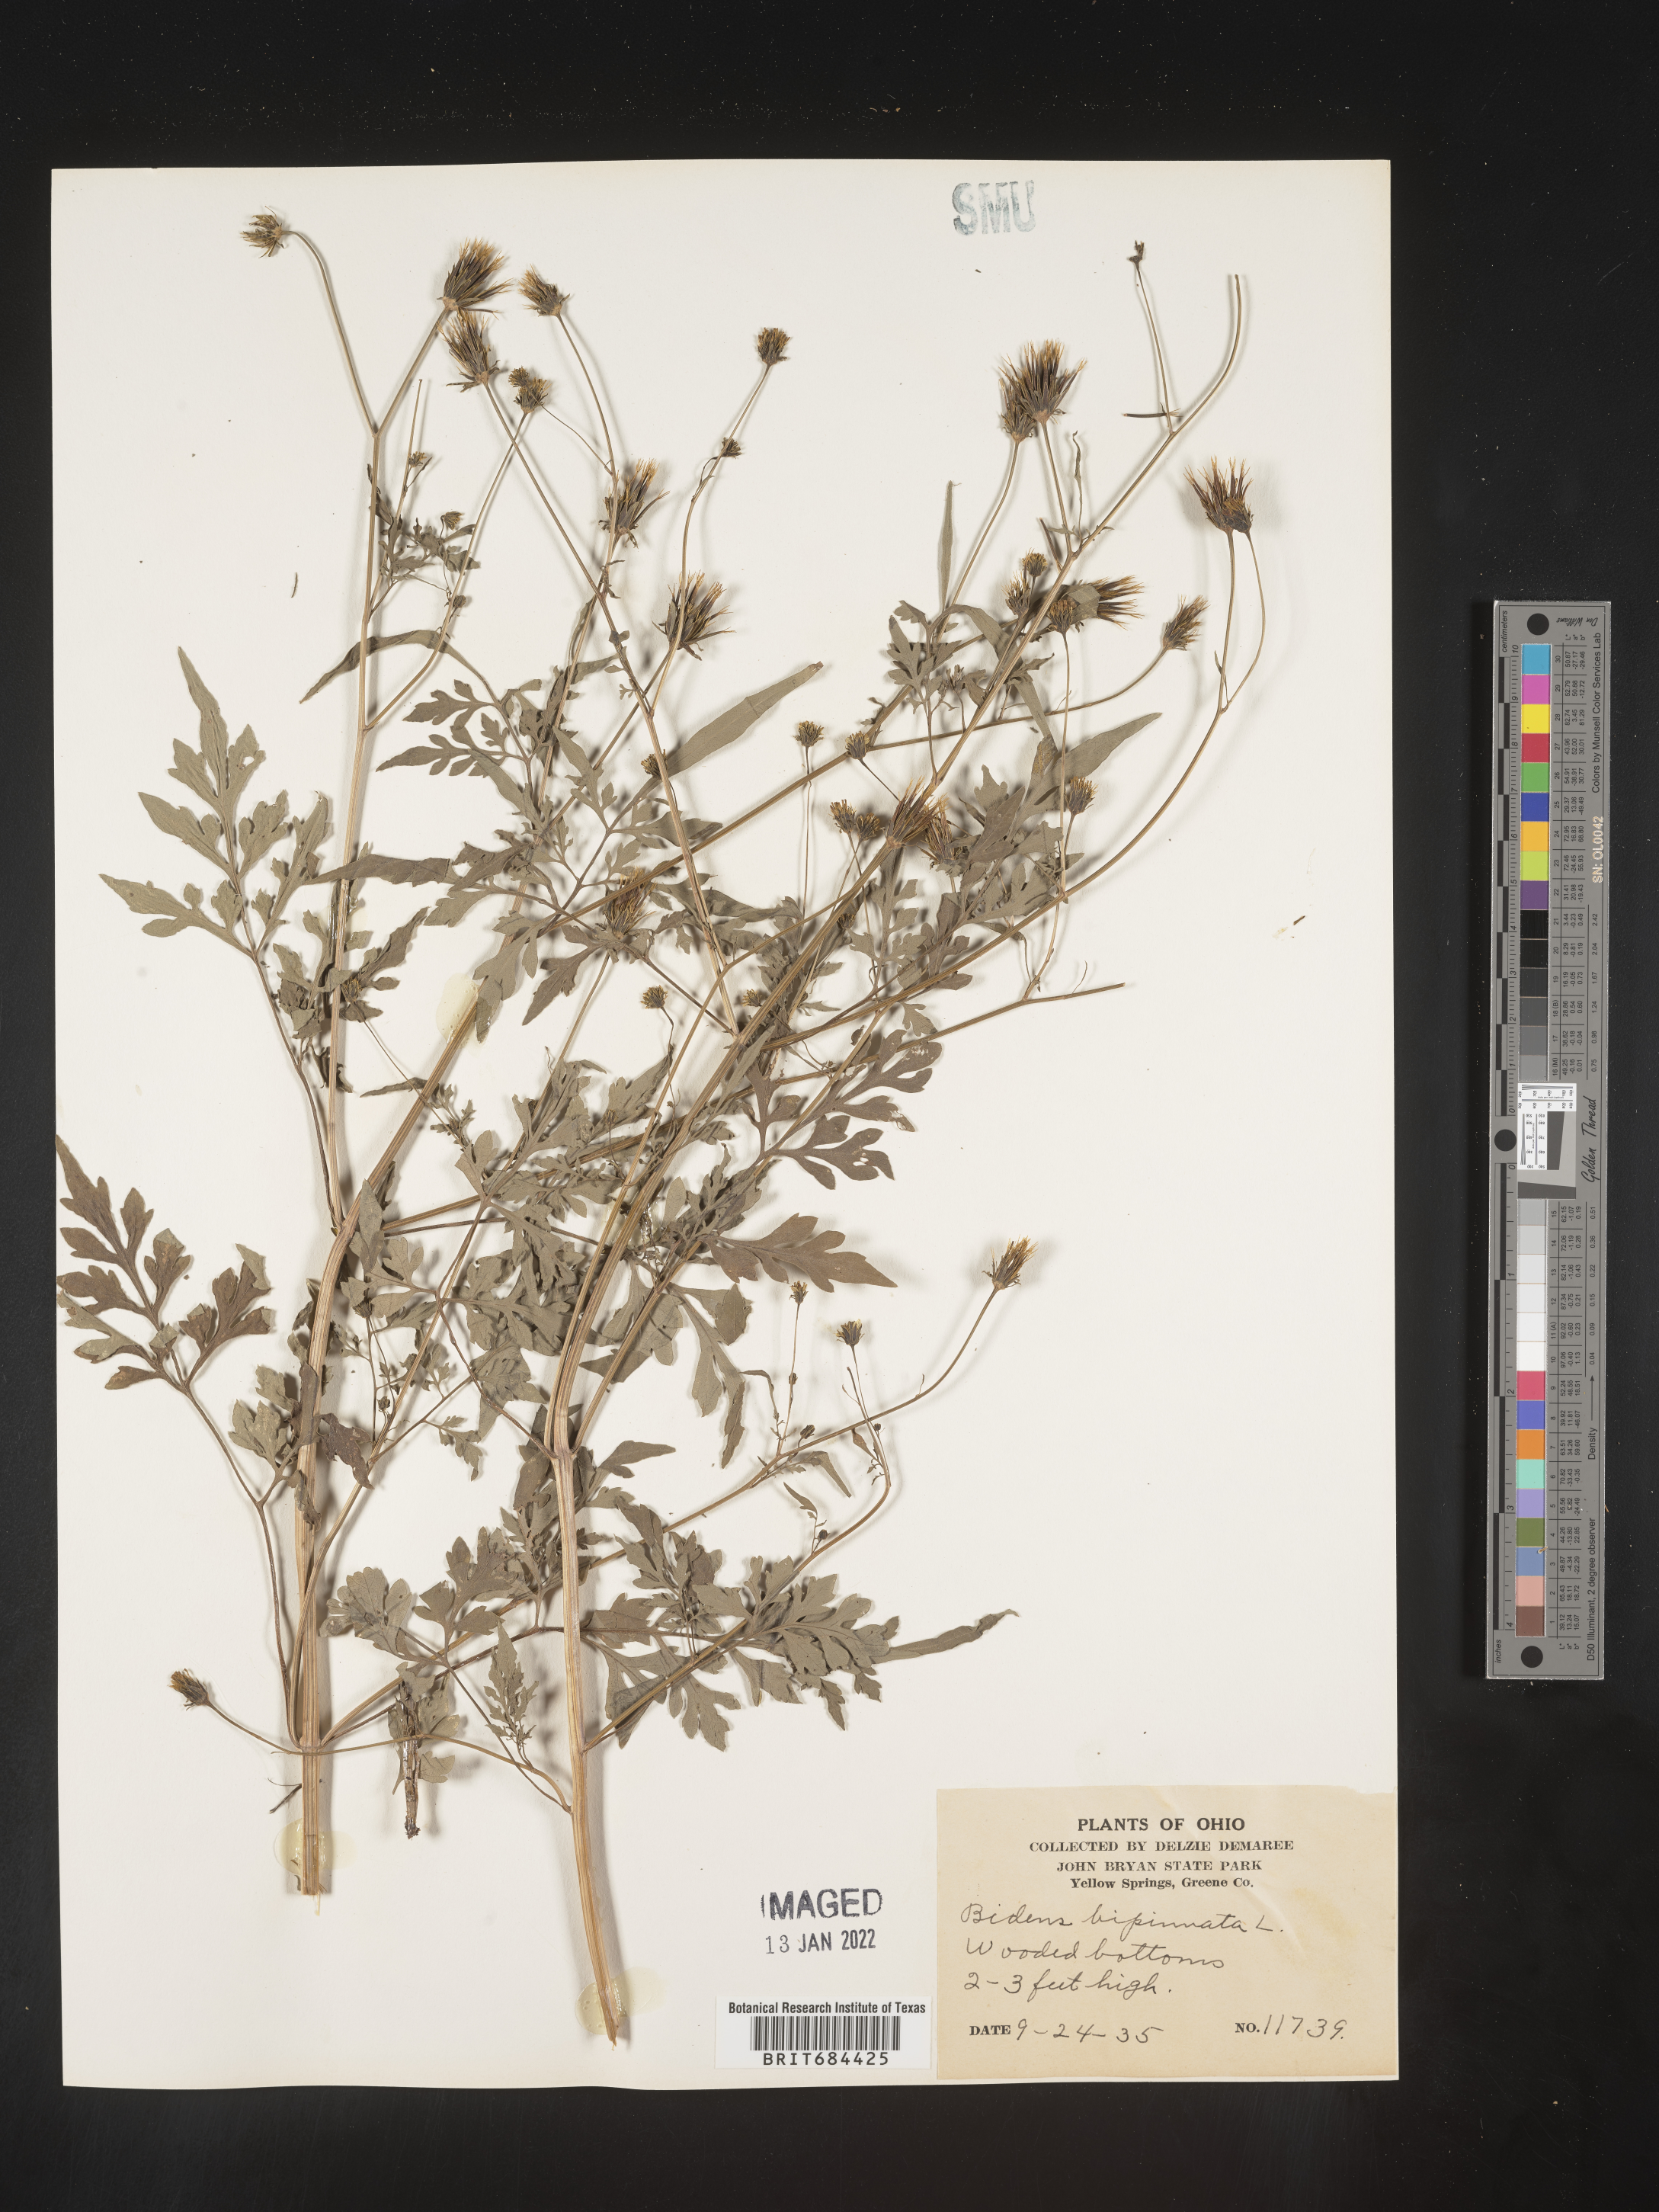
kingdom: Plantae
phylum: Tracheophyta
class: Magnoliopsida
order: Asterales
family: Asteraceae
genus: Bidens
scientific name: Bidens bipinnata
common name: Spanish-needles
